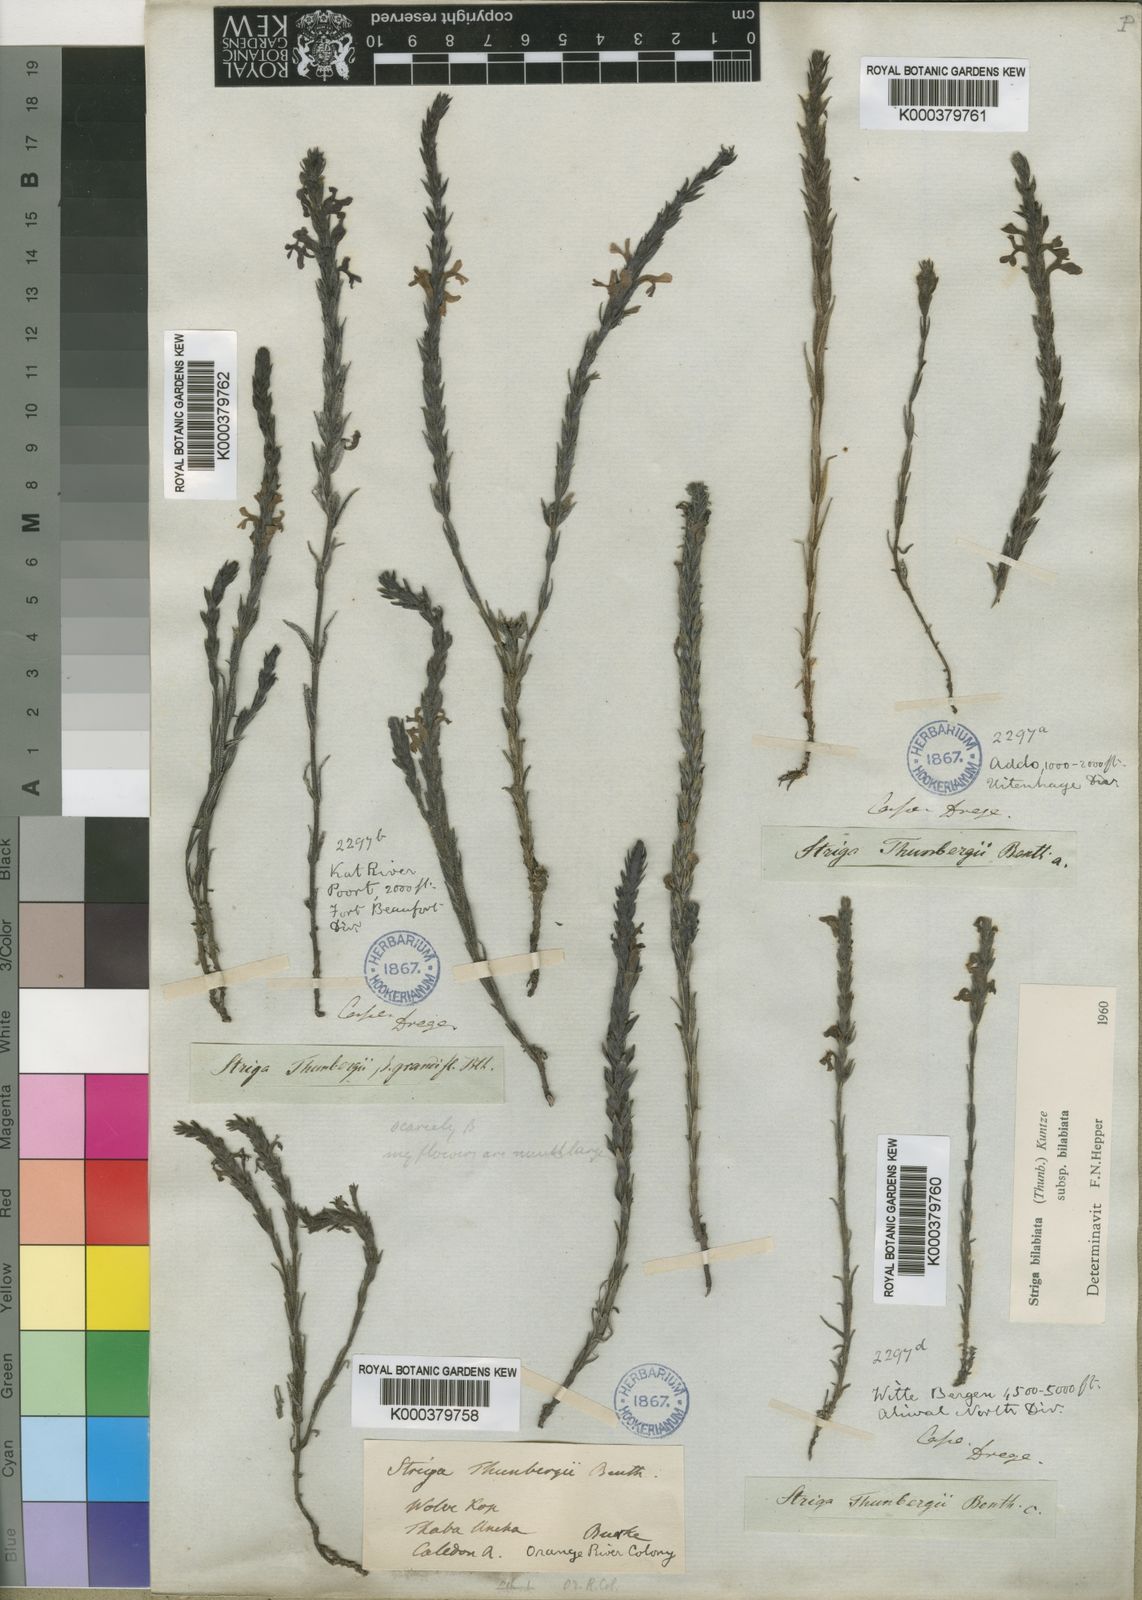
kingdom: Plantae
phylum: Tracheophyta
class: Magnoliopsida
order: Lamiales
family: Orobanchaceae
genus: Striga
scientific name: Striga bilabiata
